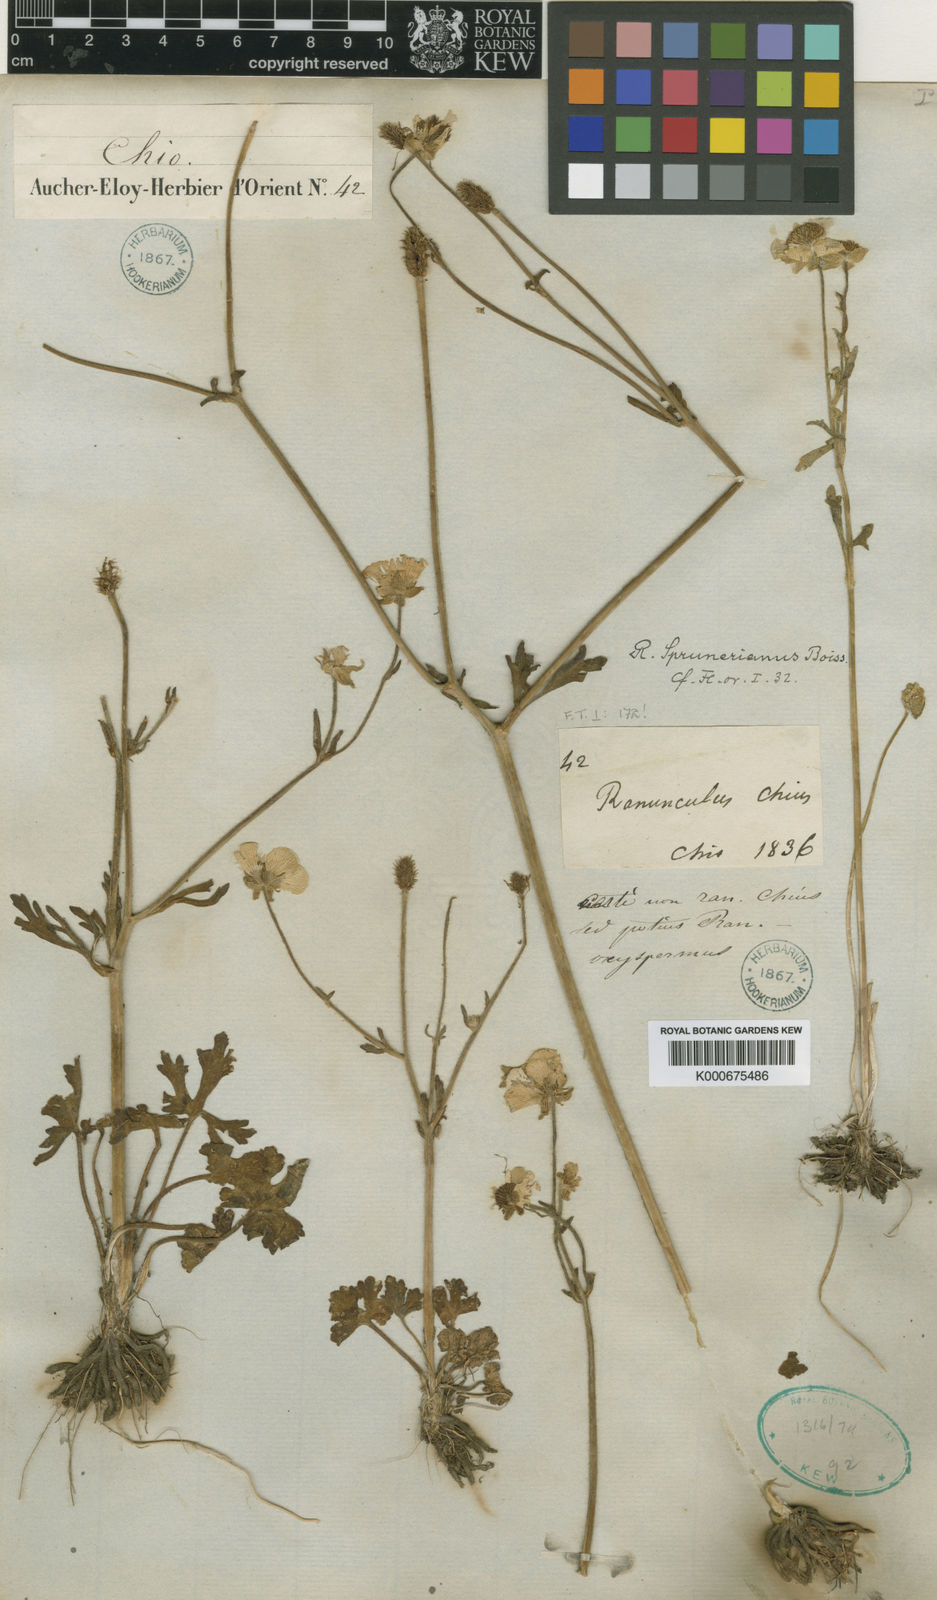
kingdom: Plantae
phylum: Tracheophyta
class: Magnoliopsida
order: Ranunculales
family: Ranunculaceae
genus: Ranunculus
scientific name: Ranunculus sprunerianus
